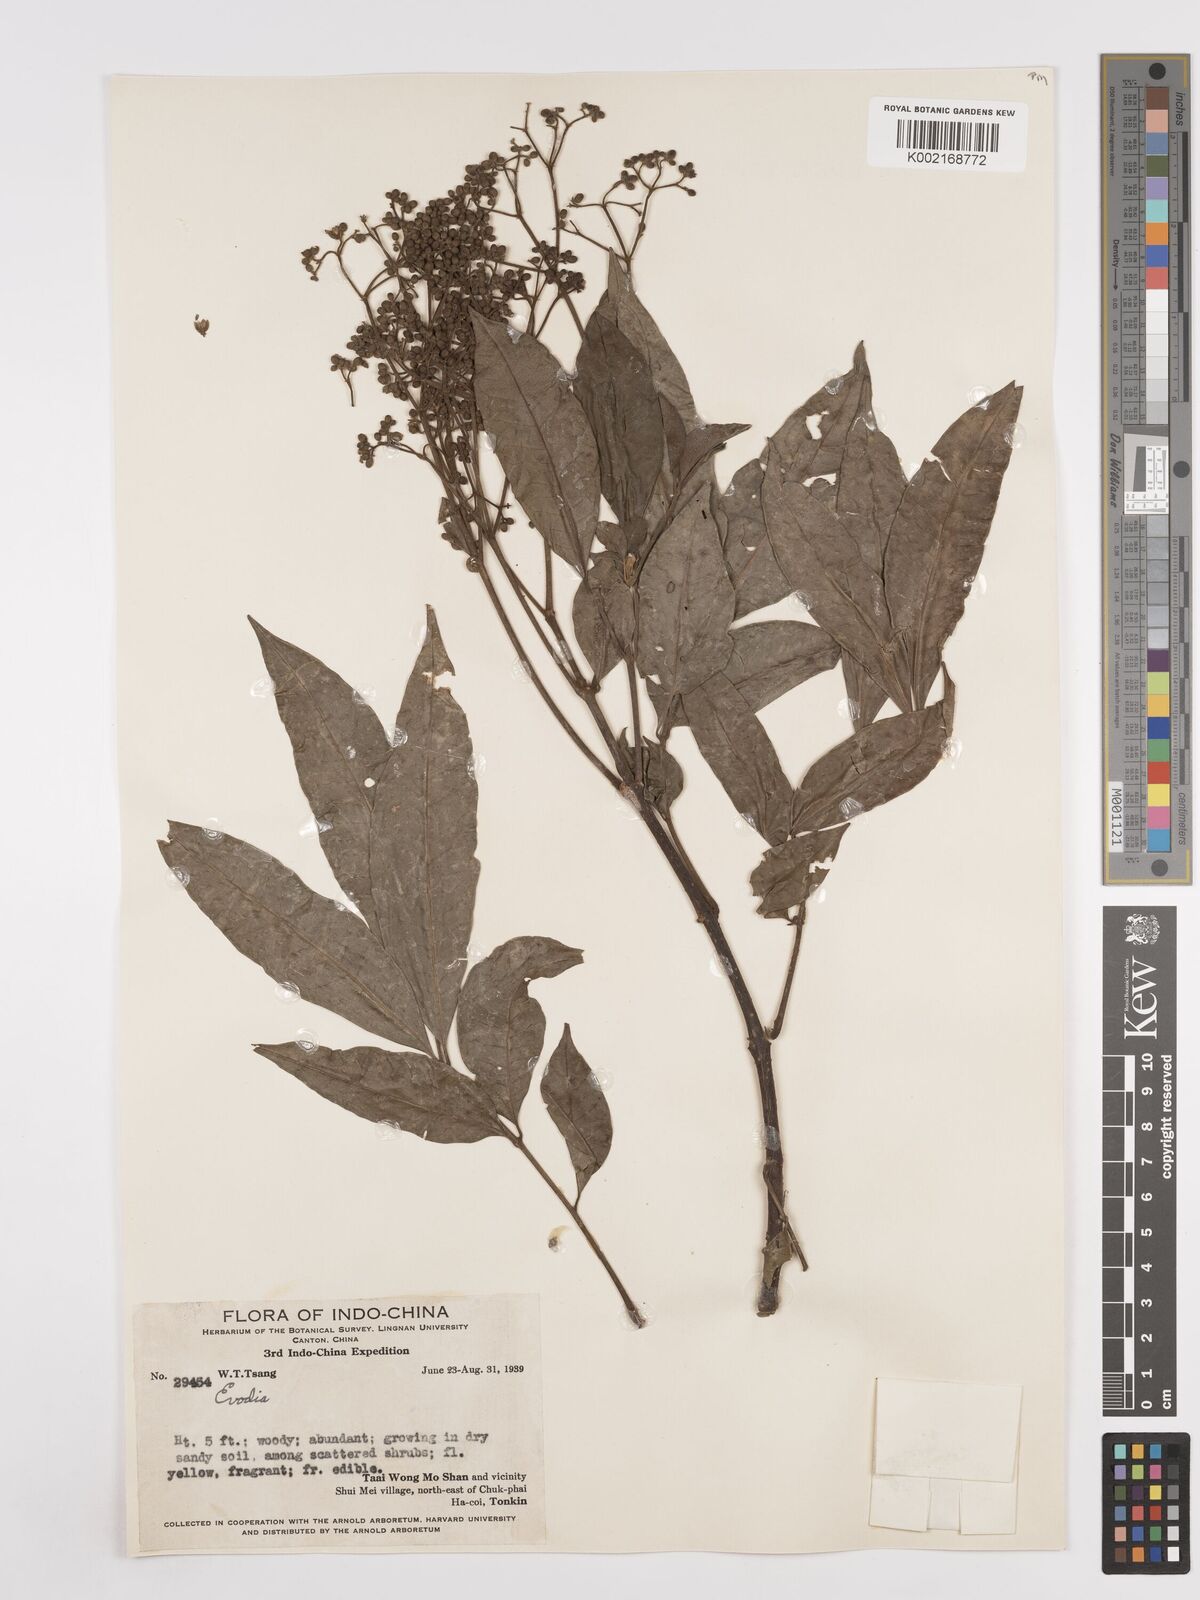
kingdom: Plantae
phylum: Tracheophyta
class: Magnoliopsida
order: Sapindales
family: Rutaceae
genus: Euodia
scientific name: Euodia
